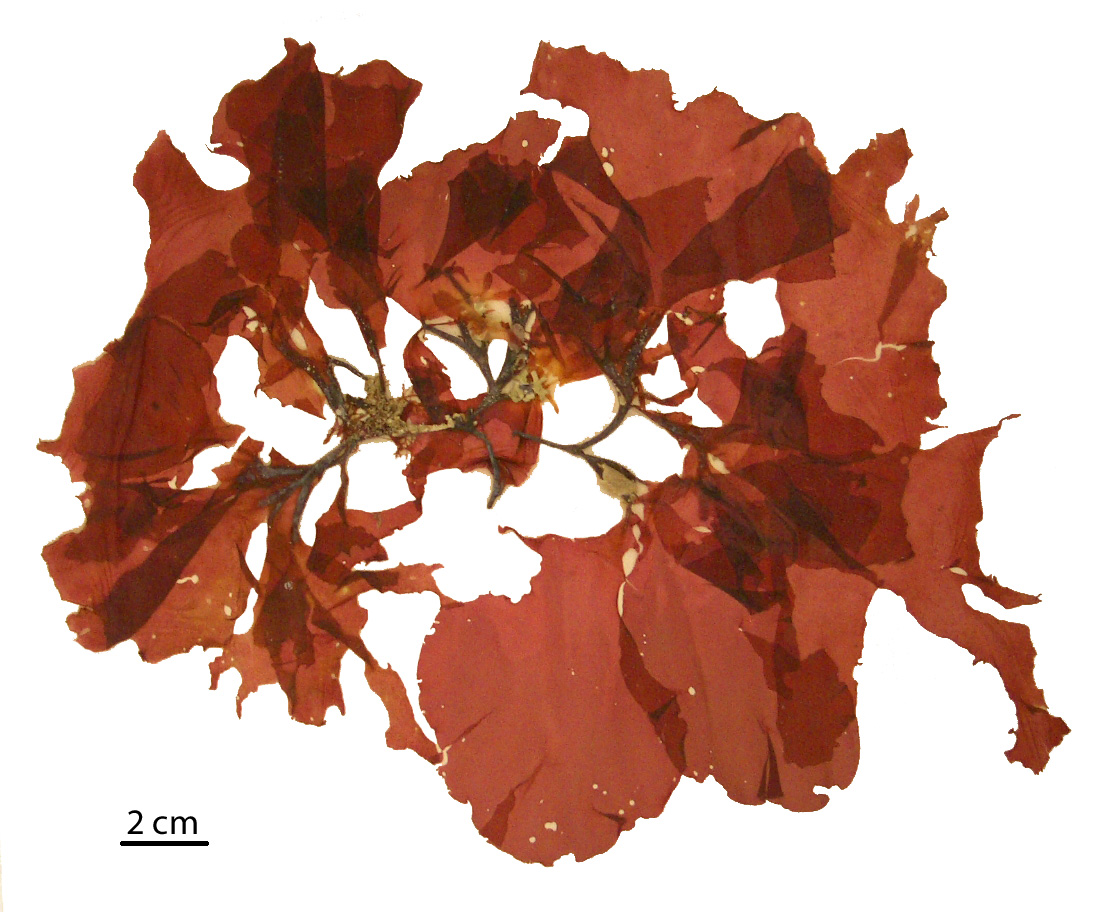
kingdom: Plantae
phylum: Rhodophyta
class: Florideophyceae
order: Halymeniales
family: Halymeniaceae
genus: Cryptonemia
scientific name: Cryptonemia latissima
